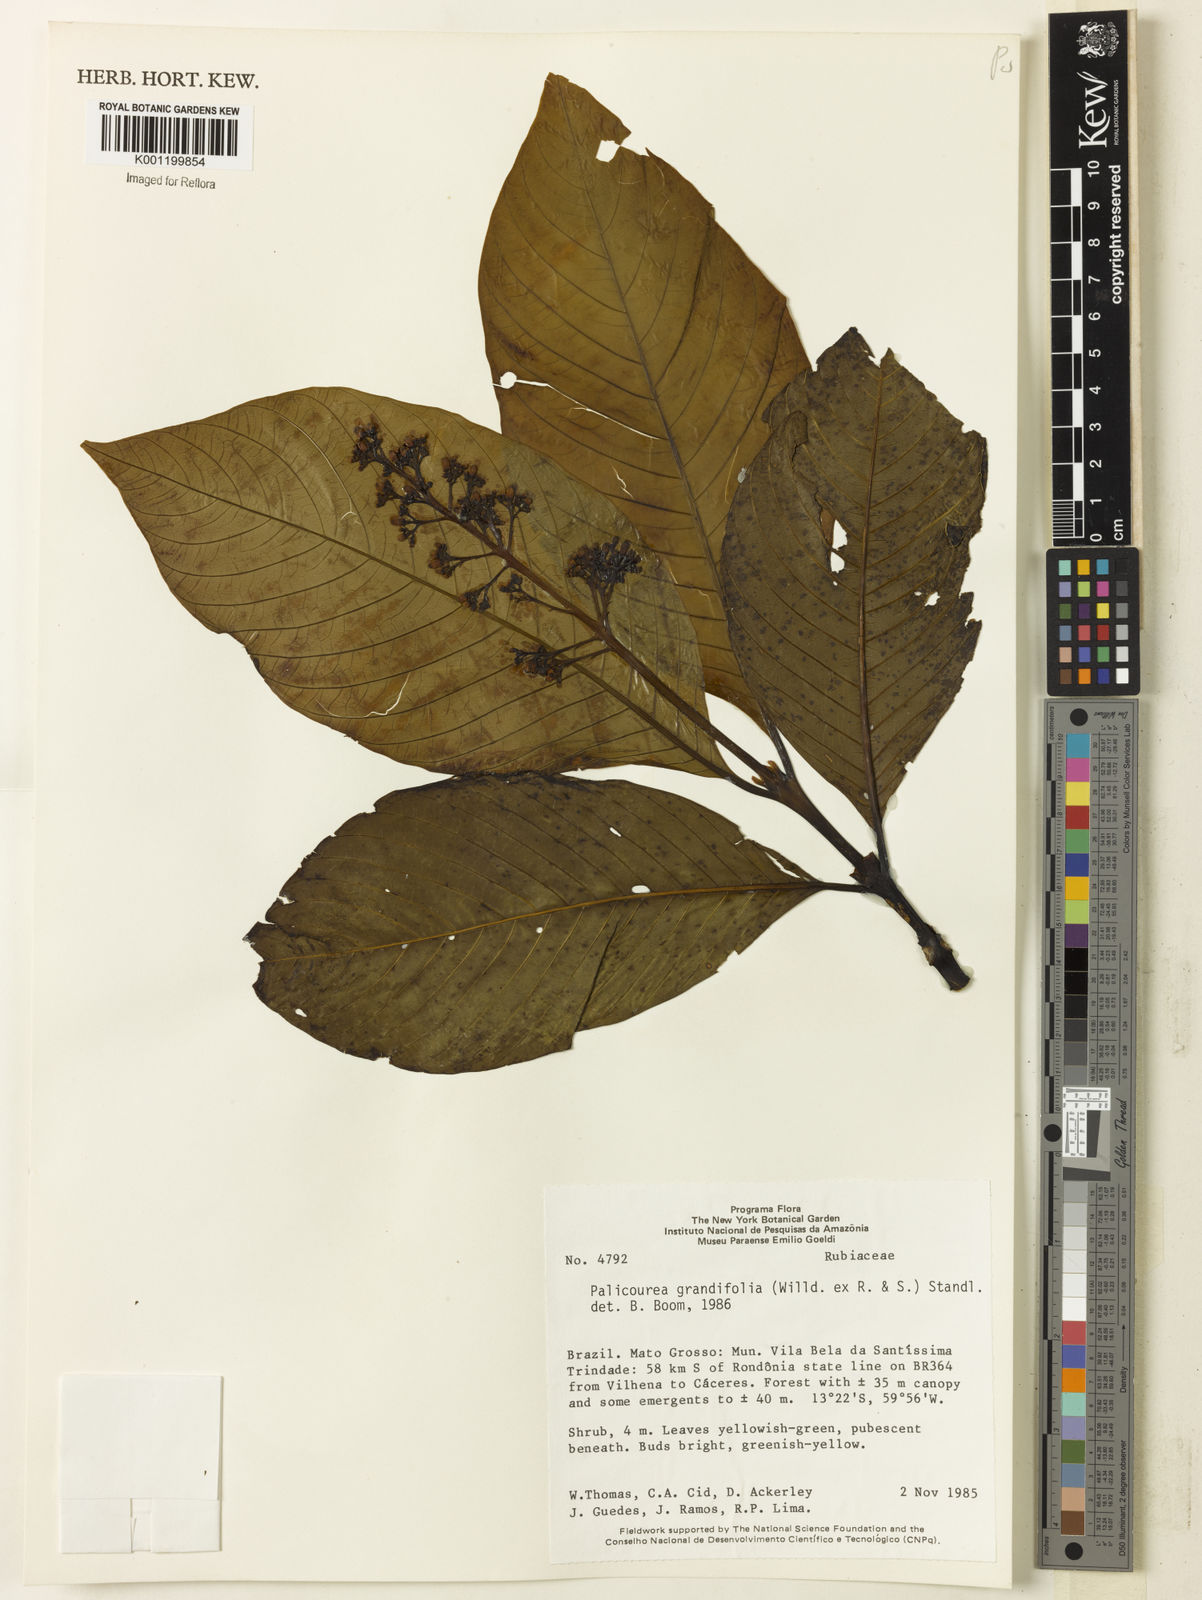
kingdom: Plantae
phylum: Tracheophyta
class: Magnoliopsida
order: Gentianales
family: Rubiaceae
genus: Palicourea
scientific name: Palicourea grandifolia
